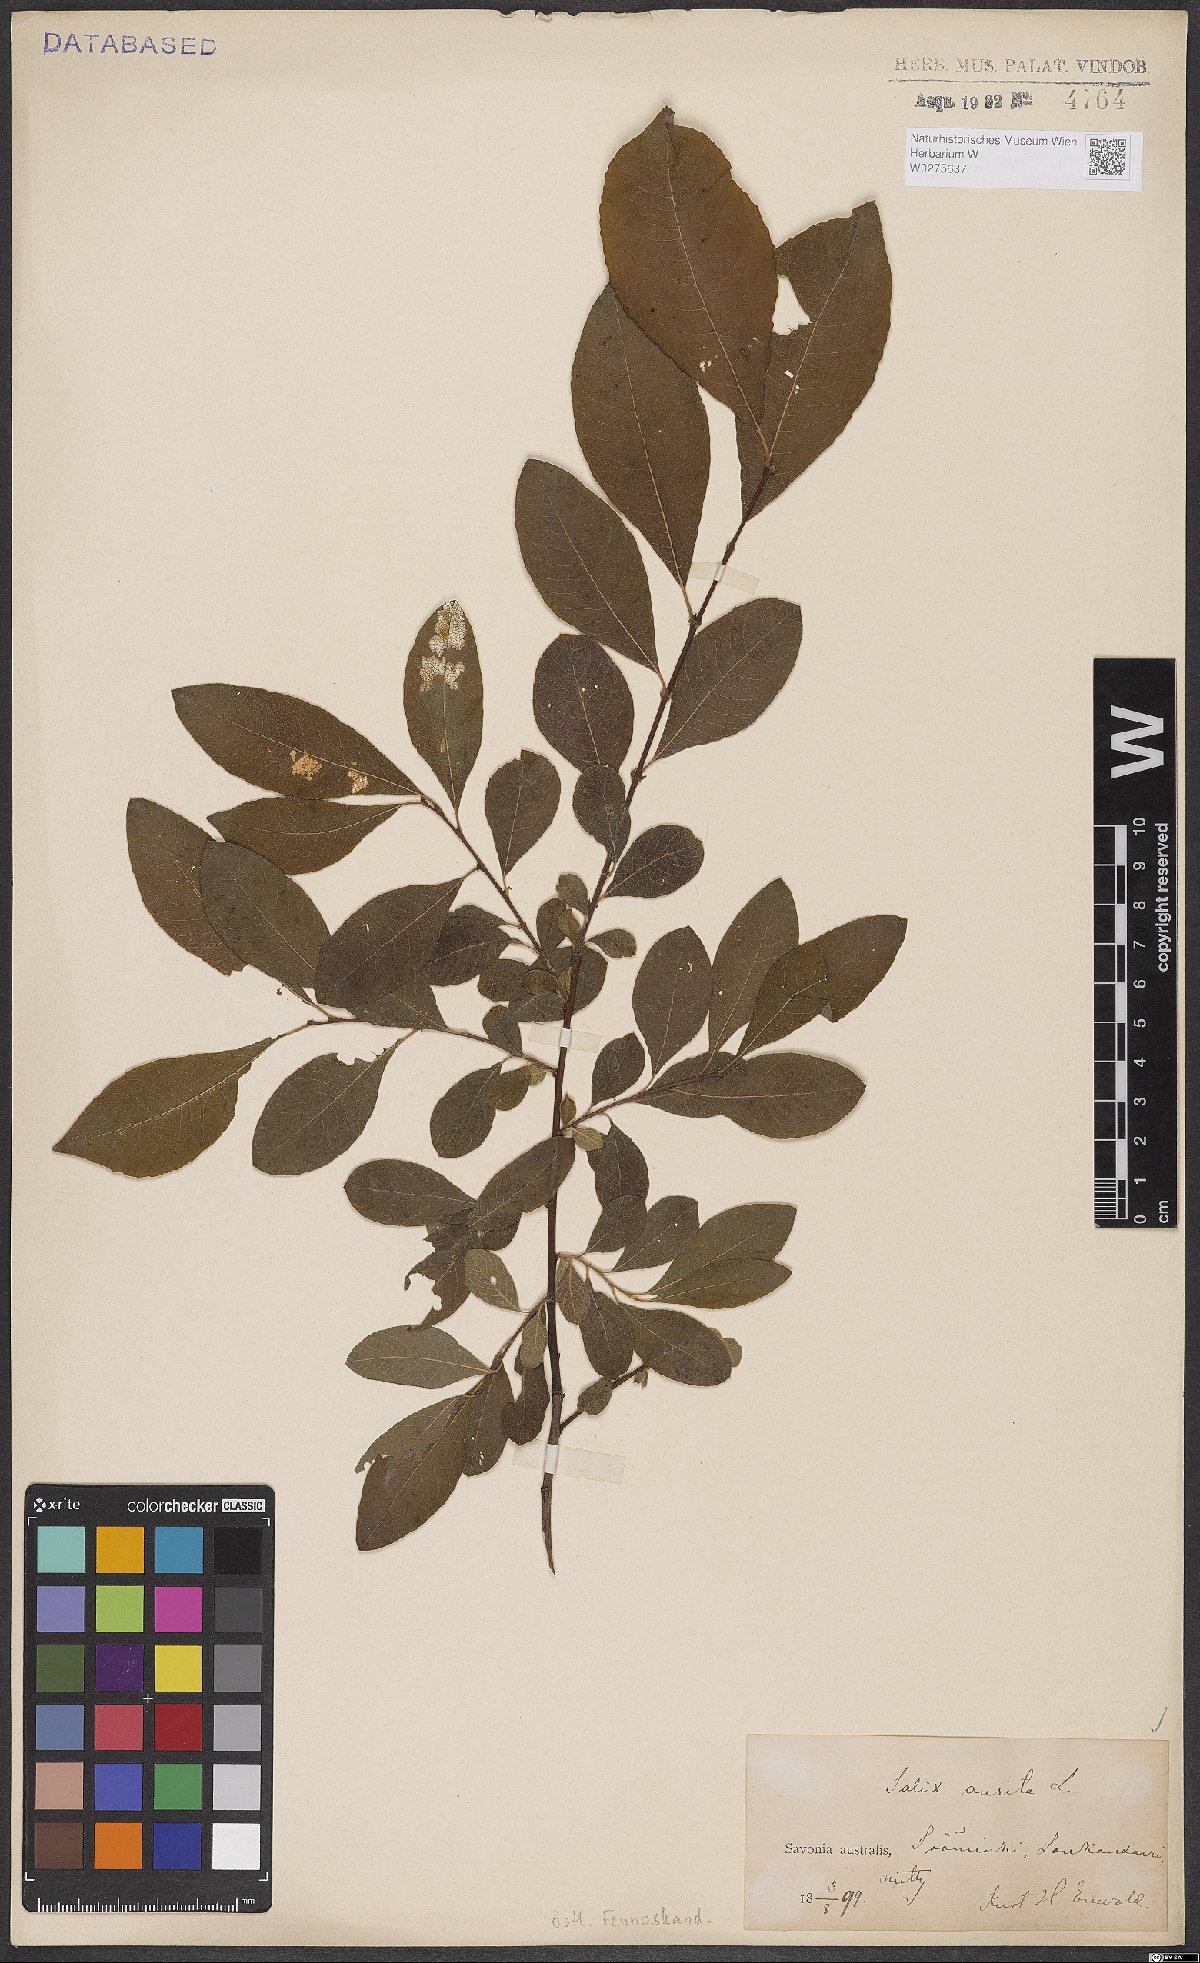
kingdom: Plantae
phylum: Tracheophyta
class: Magnoliopsida
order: Malpighiales
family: Salicaceae
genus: Salix
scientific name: Salix aurita
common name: Eared willow
